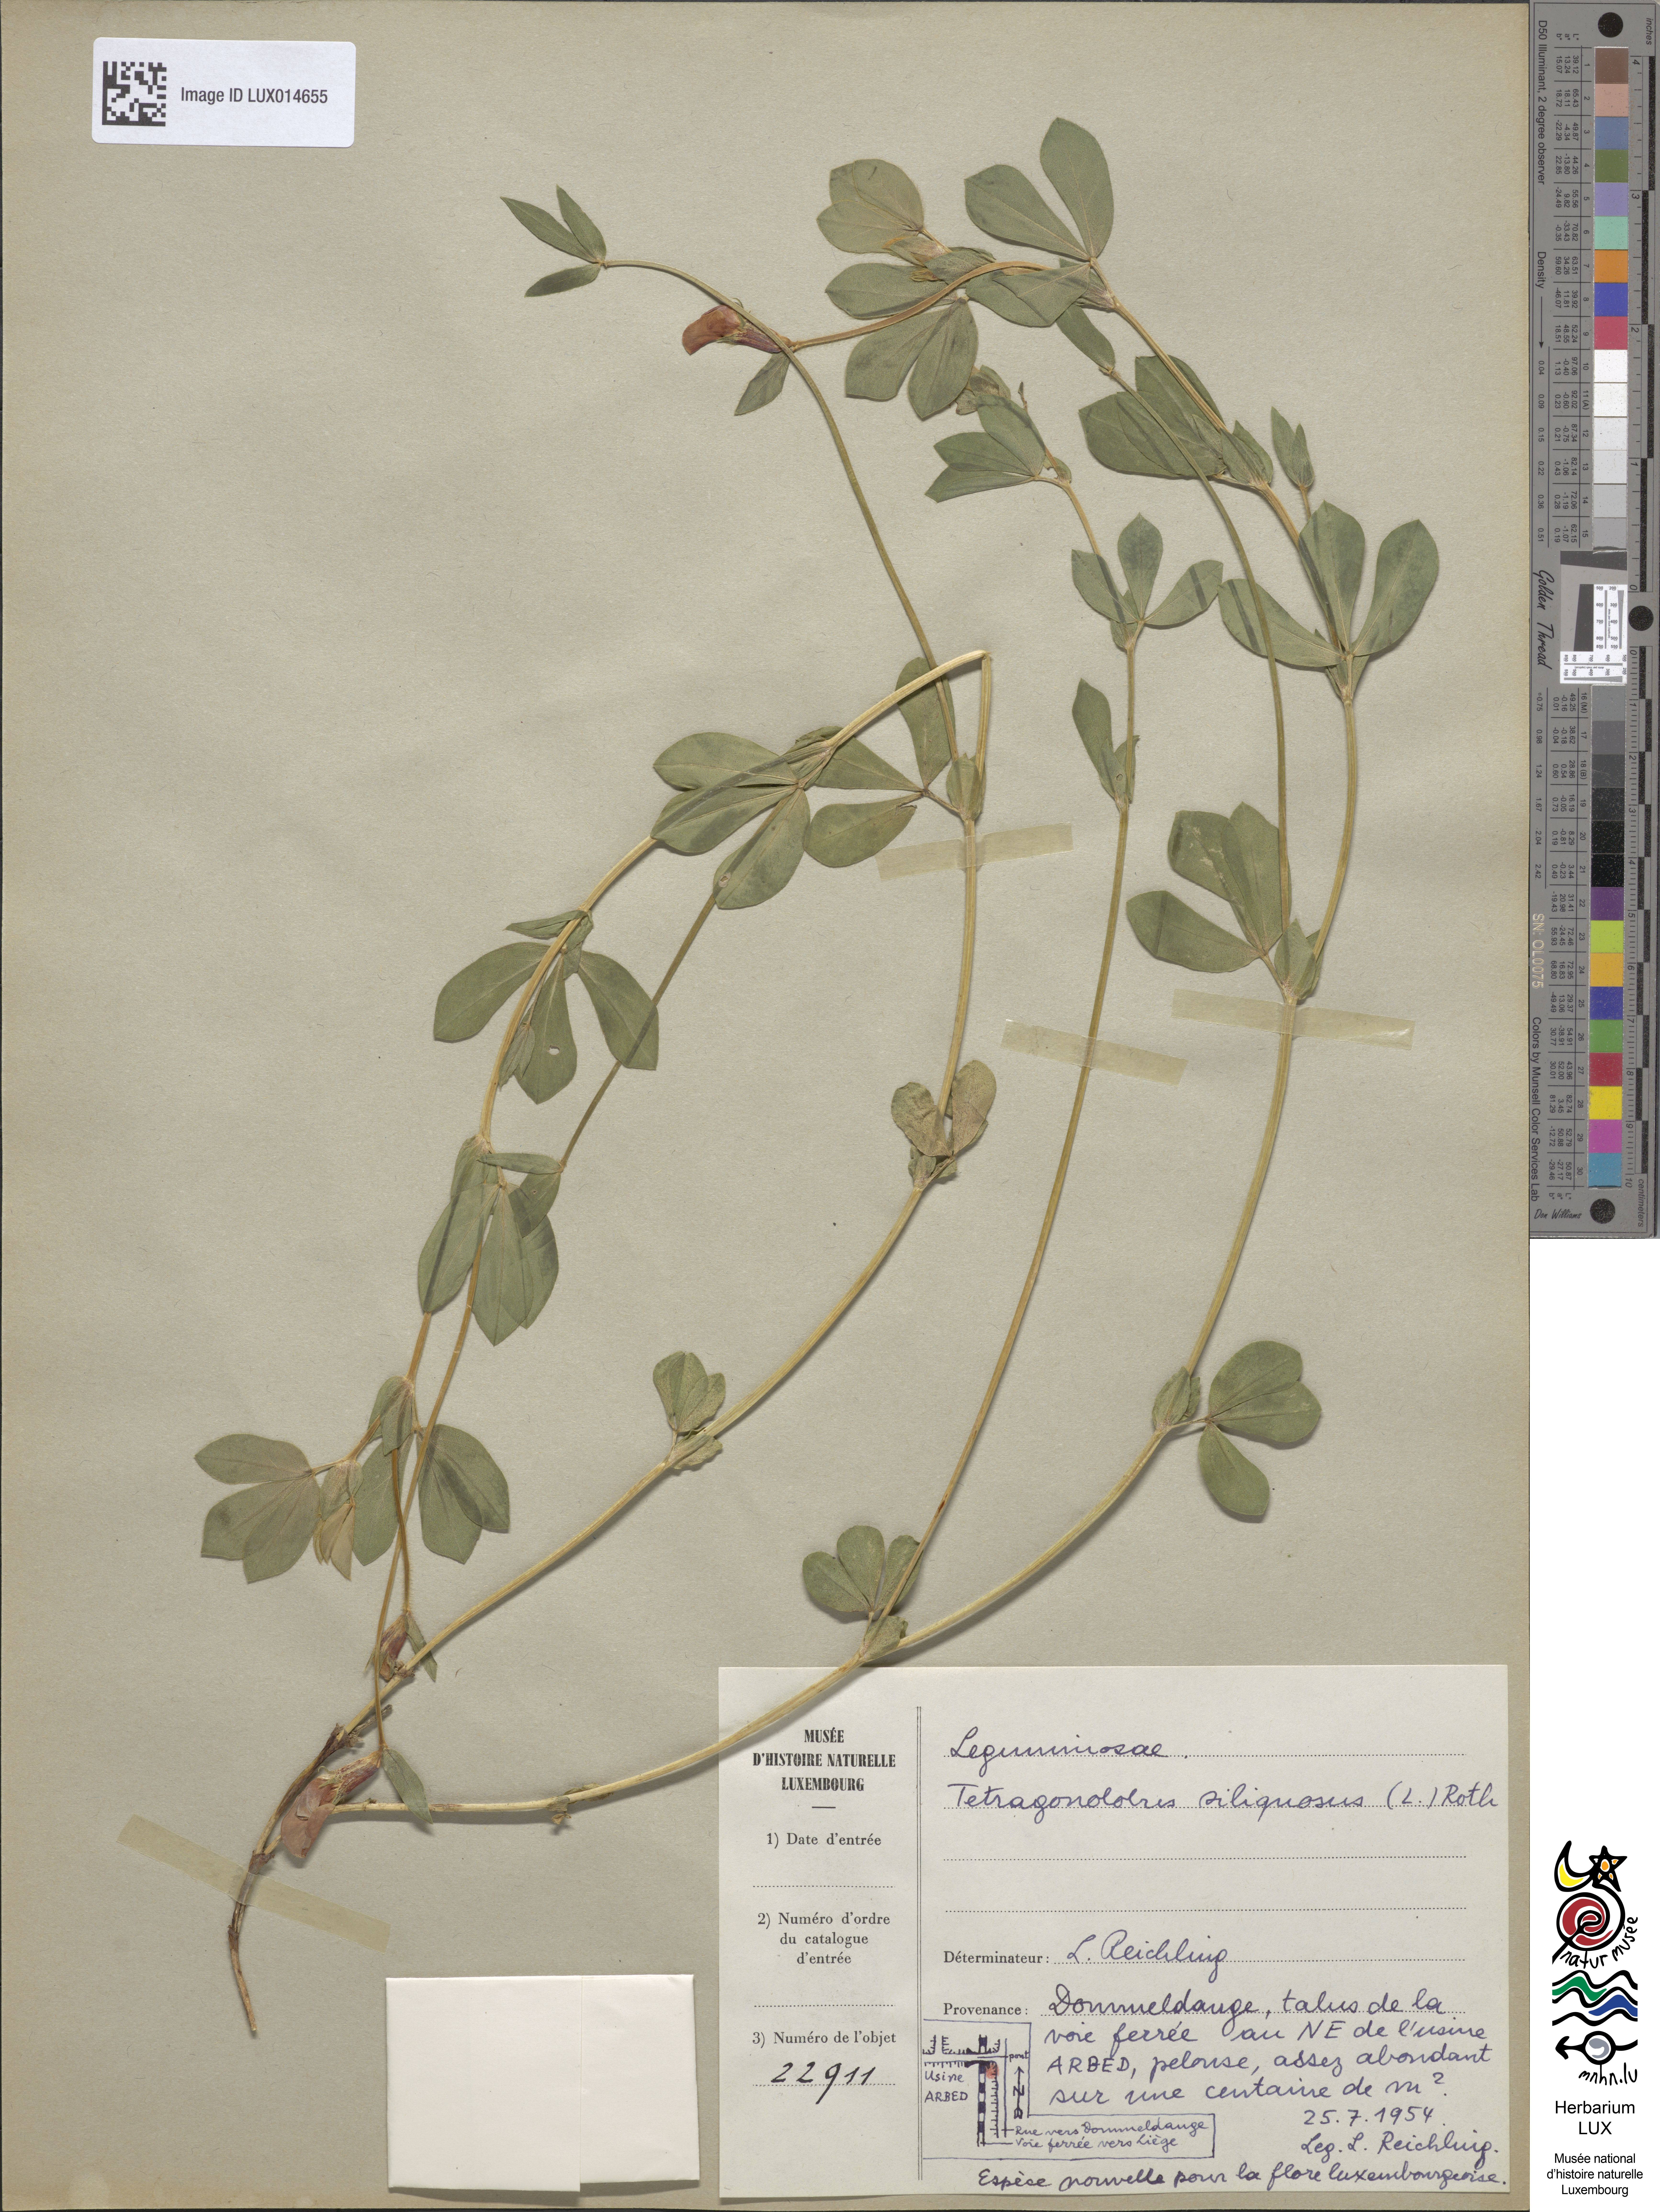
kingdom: Plantae
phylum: Tracheophyta
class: Magnoliopsida
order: Fabales
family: Fabaceae
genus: Lotus
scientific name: Lotus maritimus
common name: Dragon's-teeth
